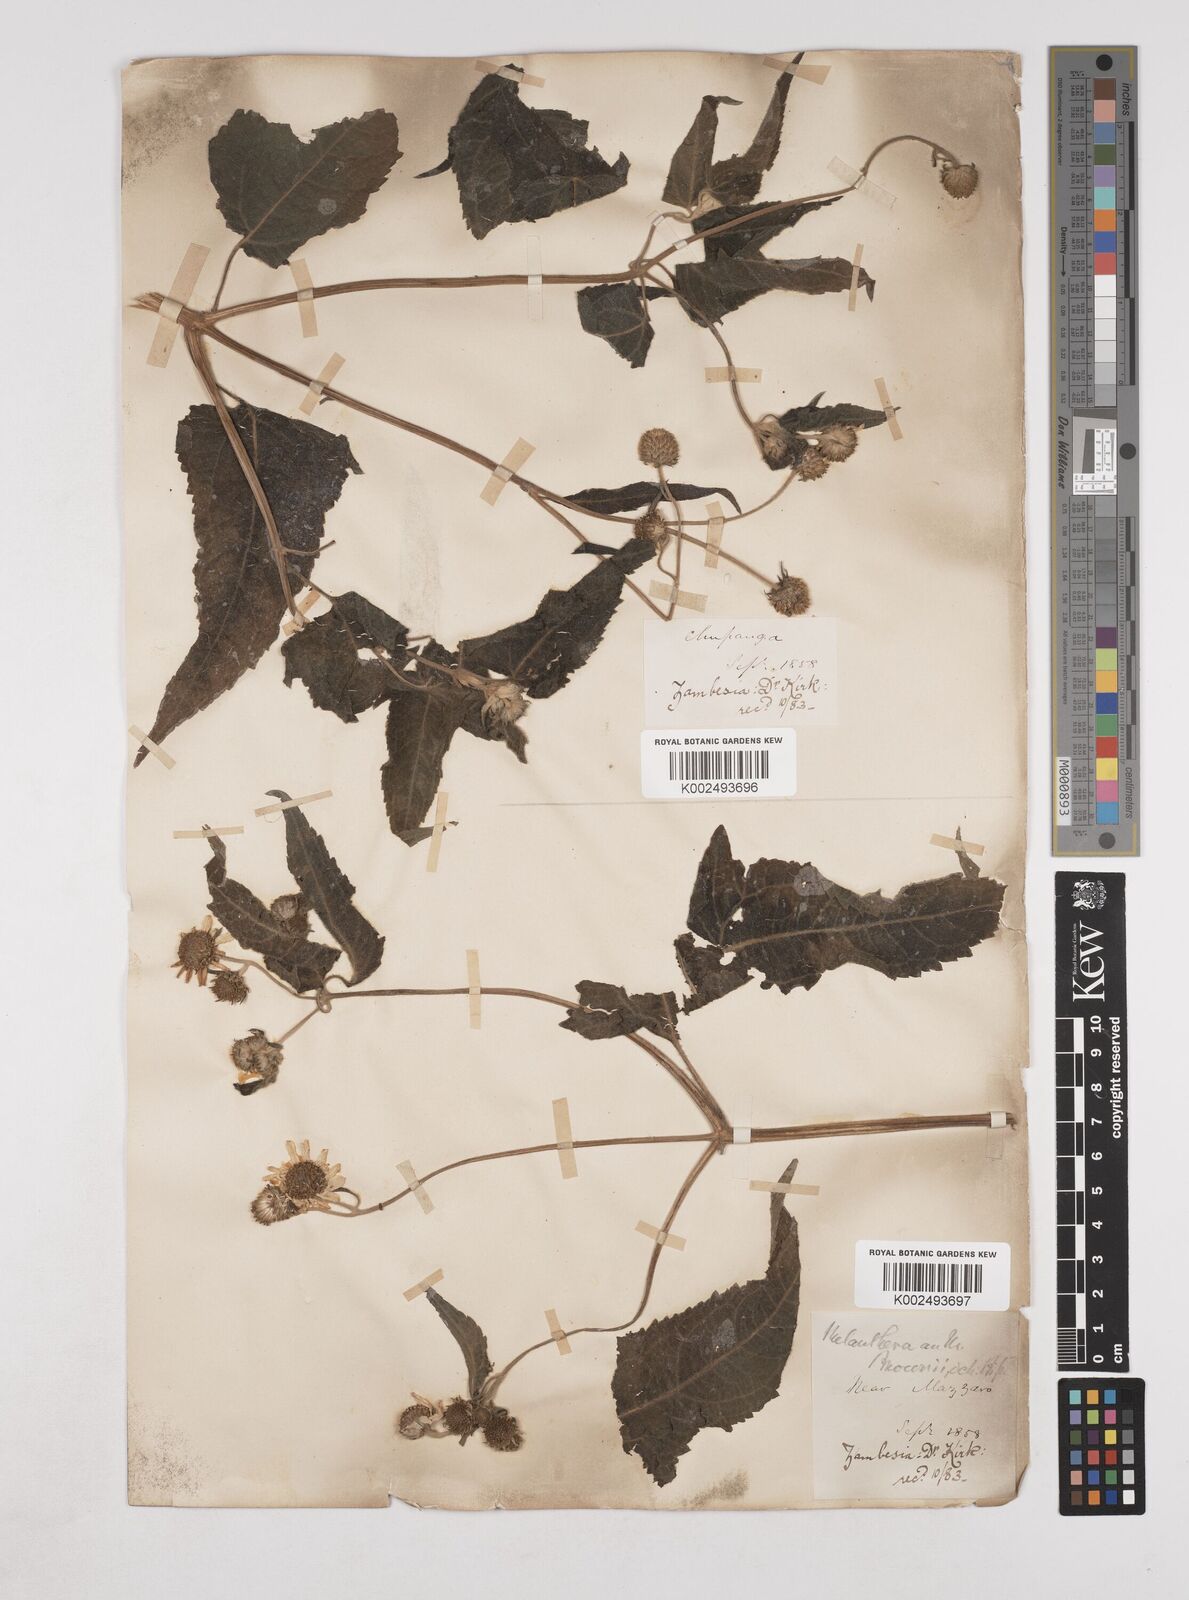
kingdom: Plantae
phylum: Tracheophyta
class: Magnoliopsida
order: Asterales
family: Asteraceae
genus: Lipotriche
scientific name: Lipotriche scandens
